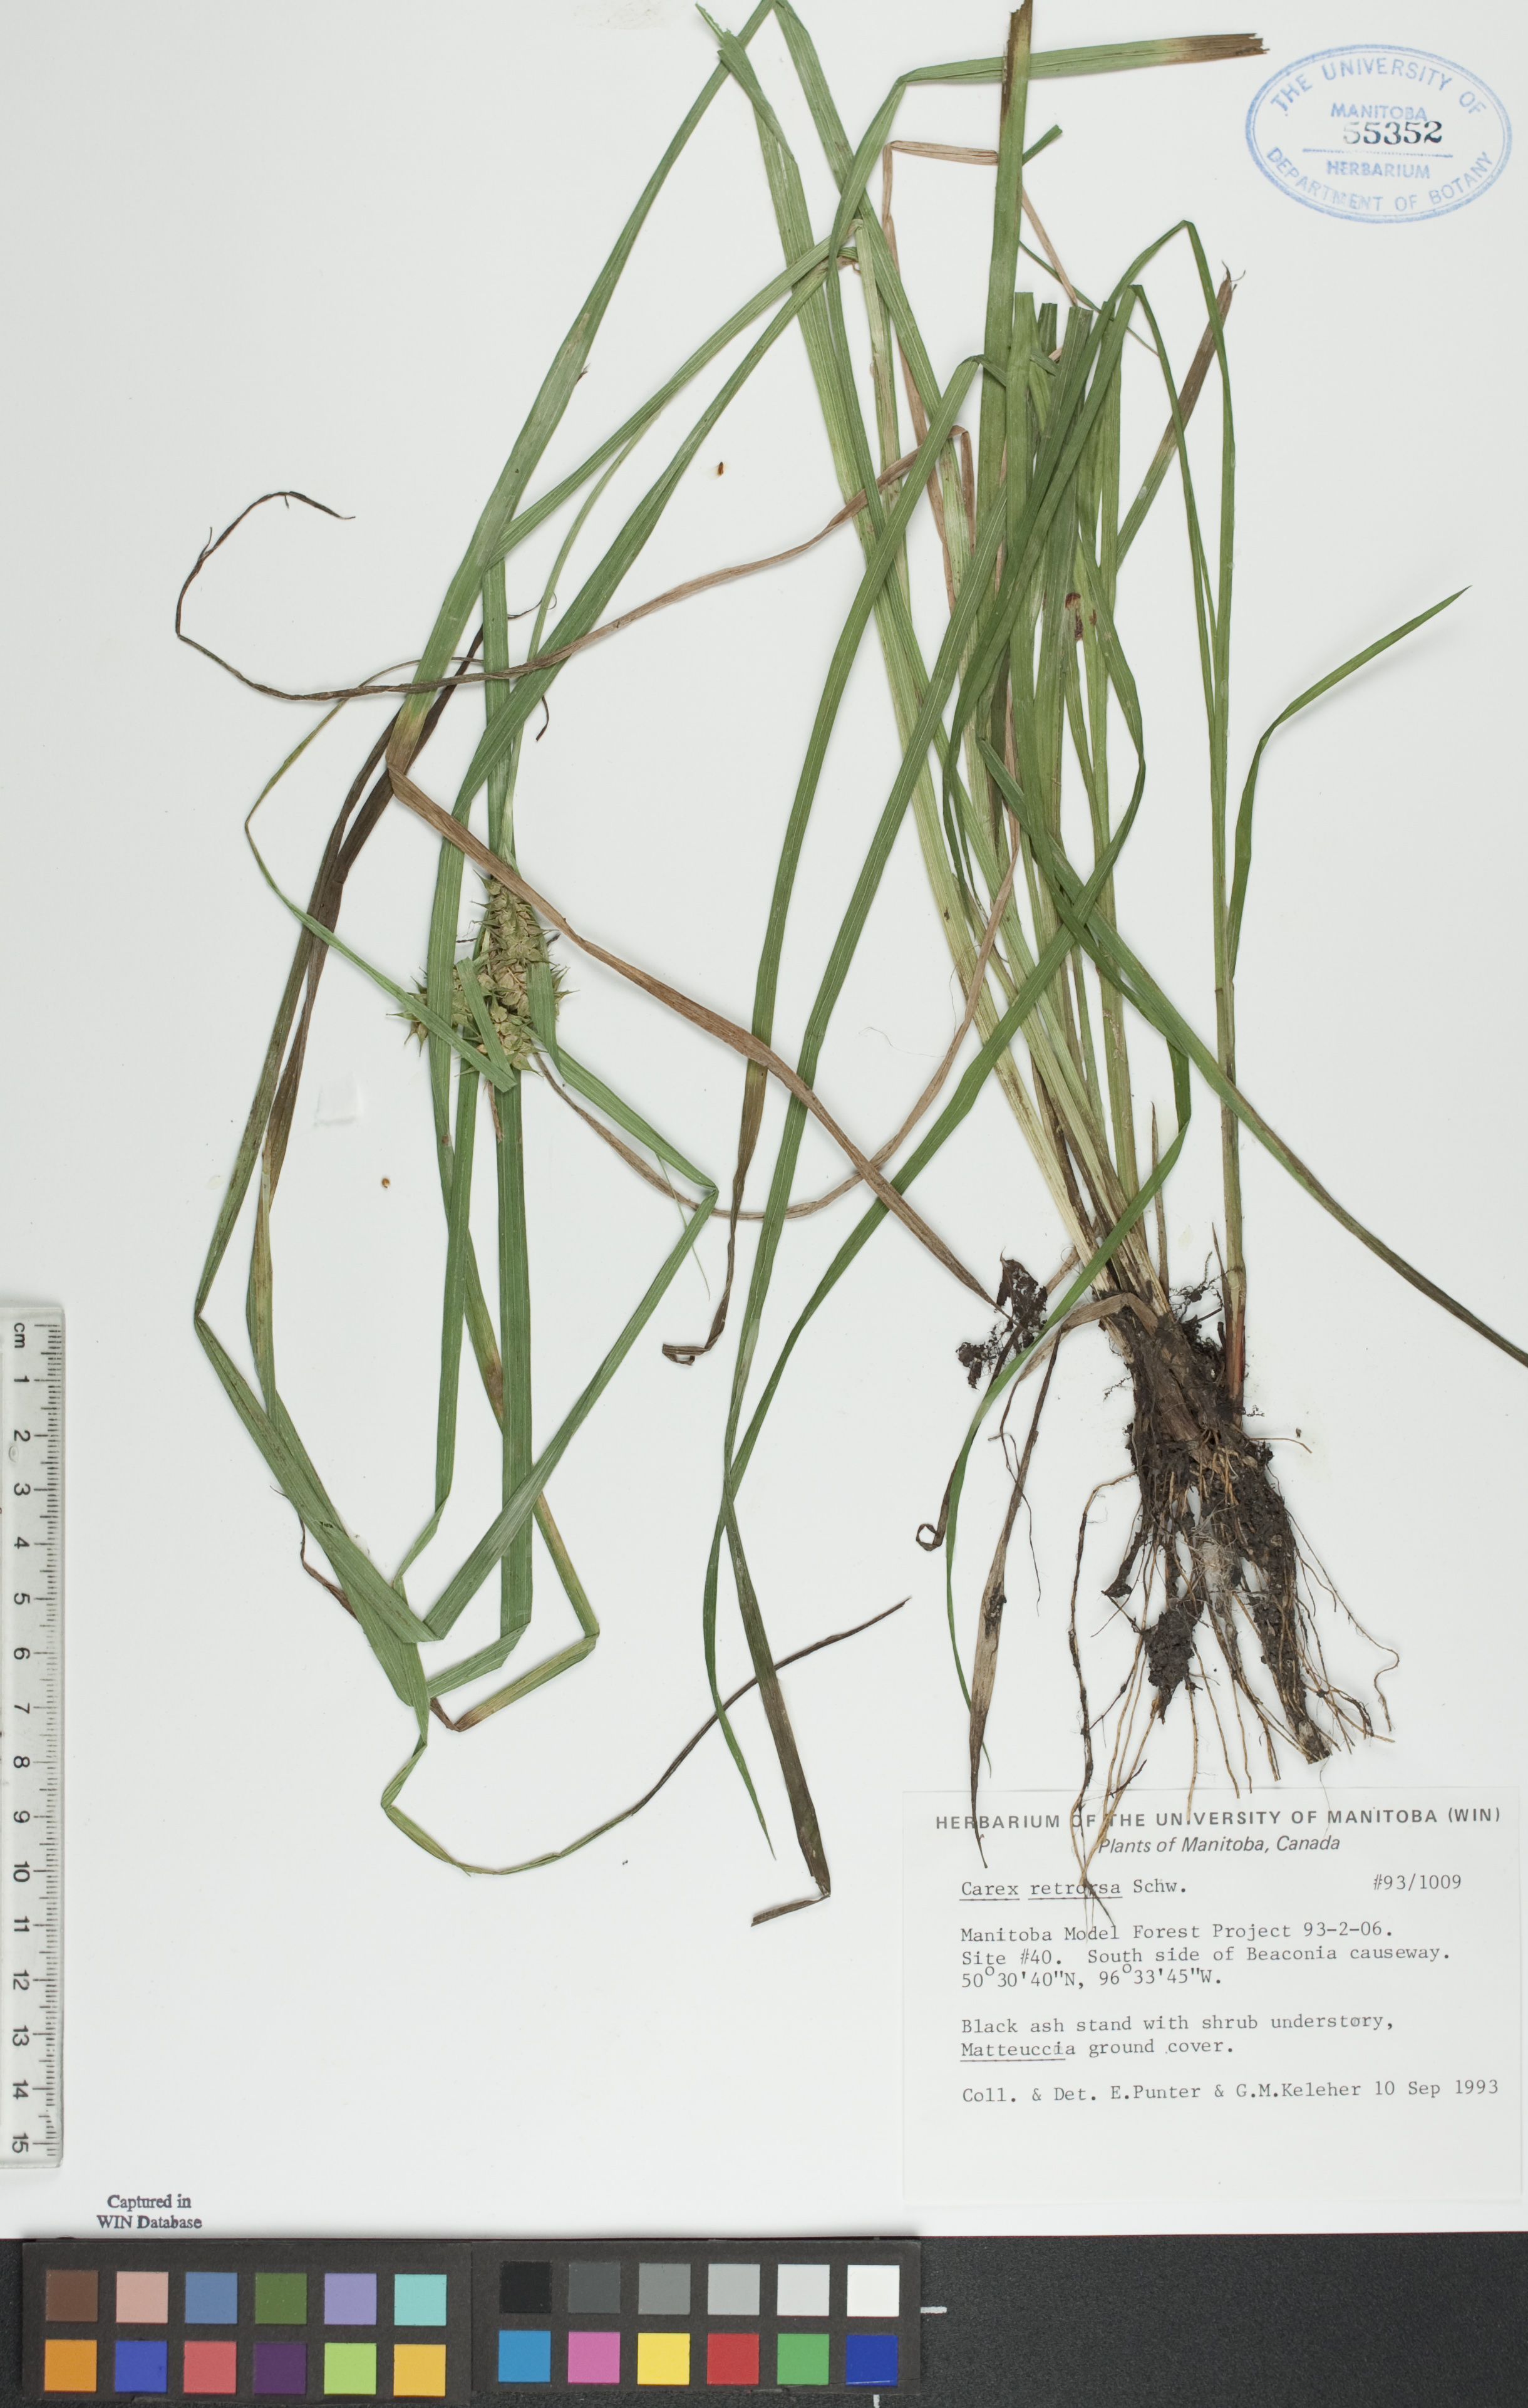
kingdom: Plantae
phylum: Tracheophyta
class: Liliopsida
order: Poales
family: Cyperaceae
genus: Carex
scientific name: Carex retrorsa
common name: Knot-sheath sedge
